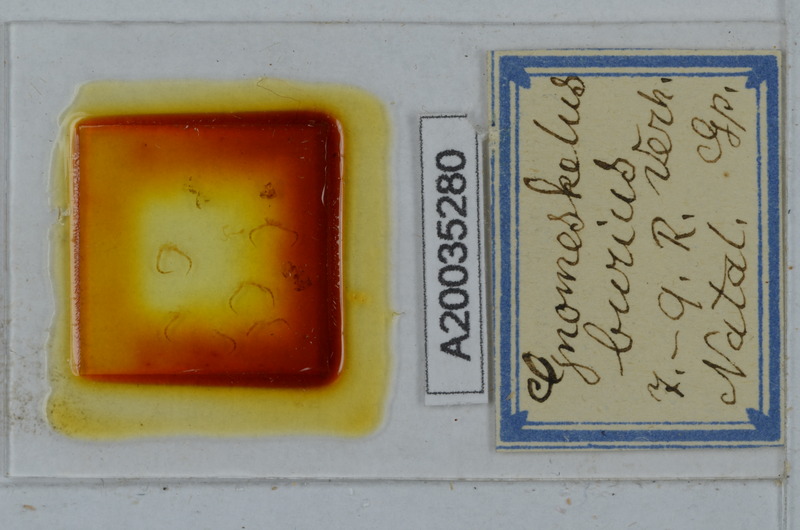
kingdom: Animalia
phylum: Arthropoda
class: Diplopoda
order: Polydesmida
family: Dalodesmidae
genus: Gnomeskelus
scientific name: Gnomeskelus burius
